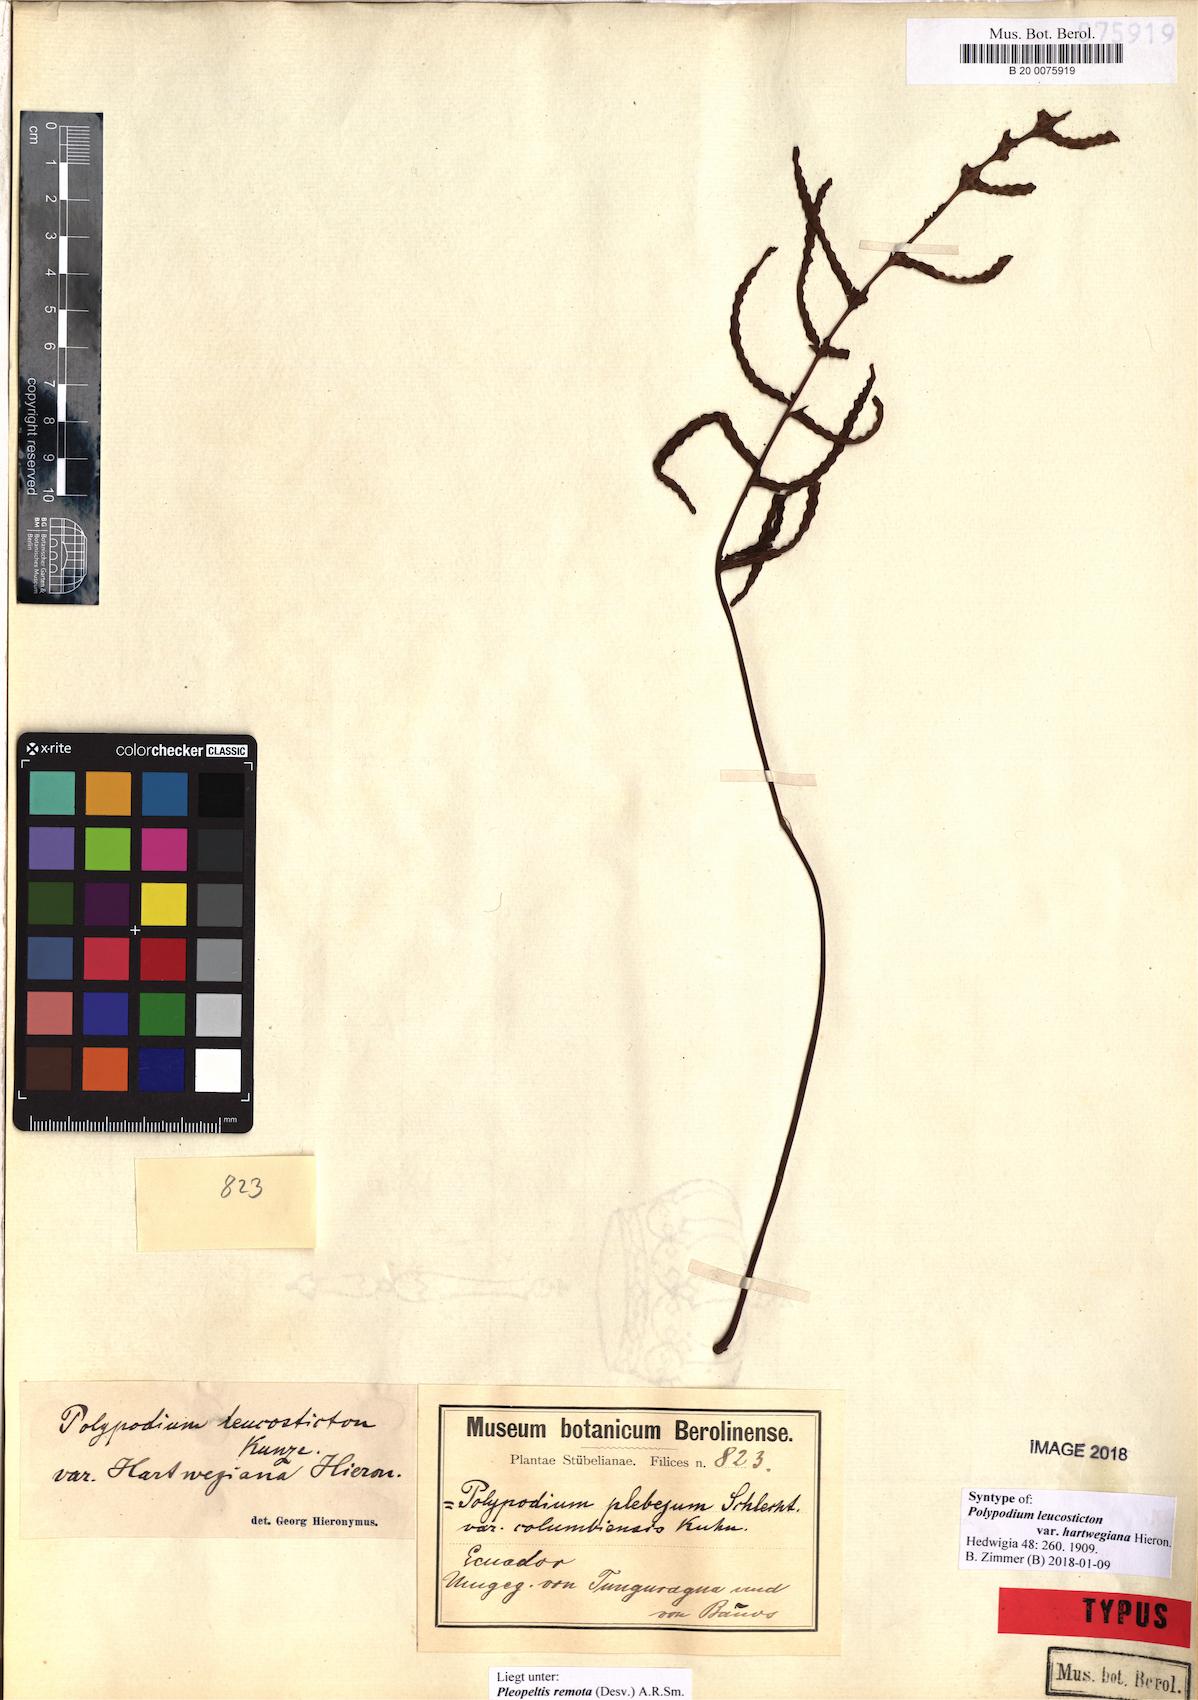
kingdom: Plantae
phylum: Tracheophyta
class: Polypodiopsida
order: Polypodiales
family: Polypodiaceae
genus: Pleopeltis
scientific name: Pleopeltis remota
